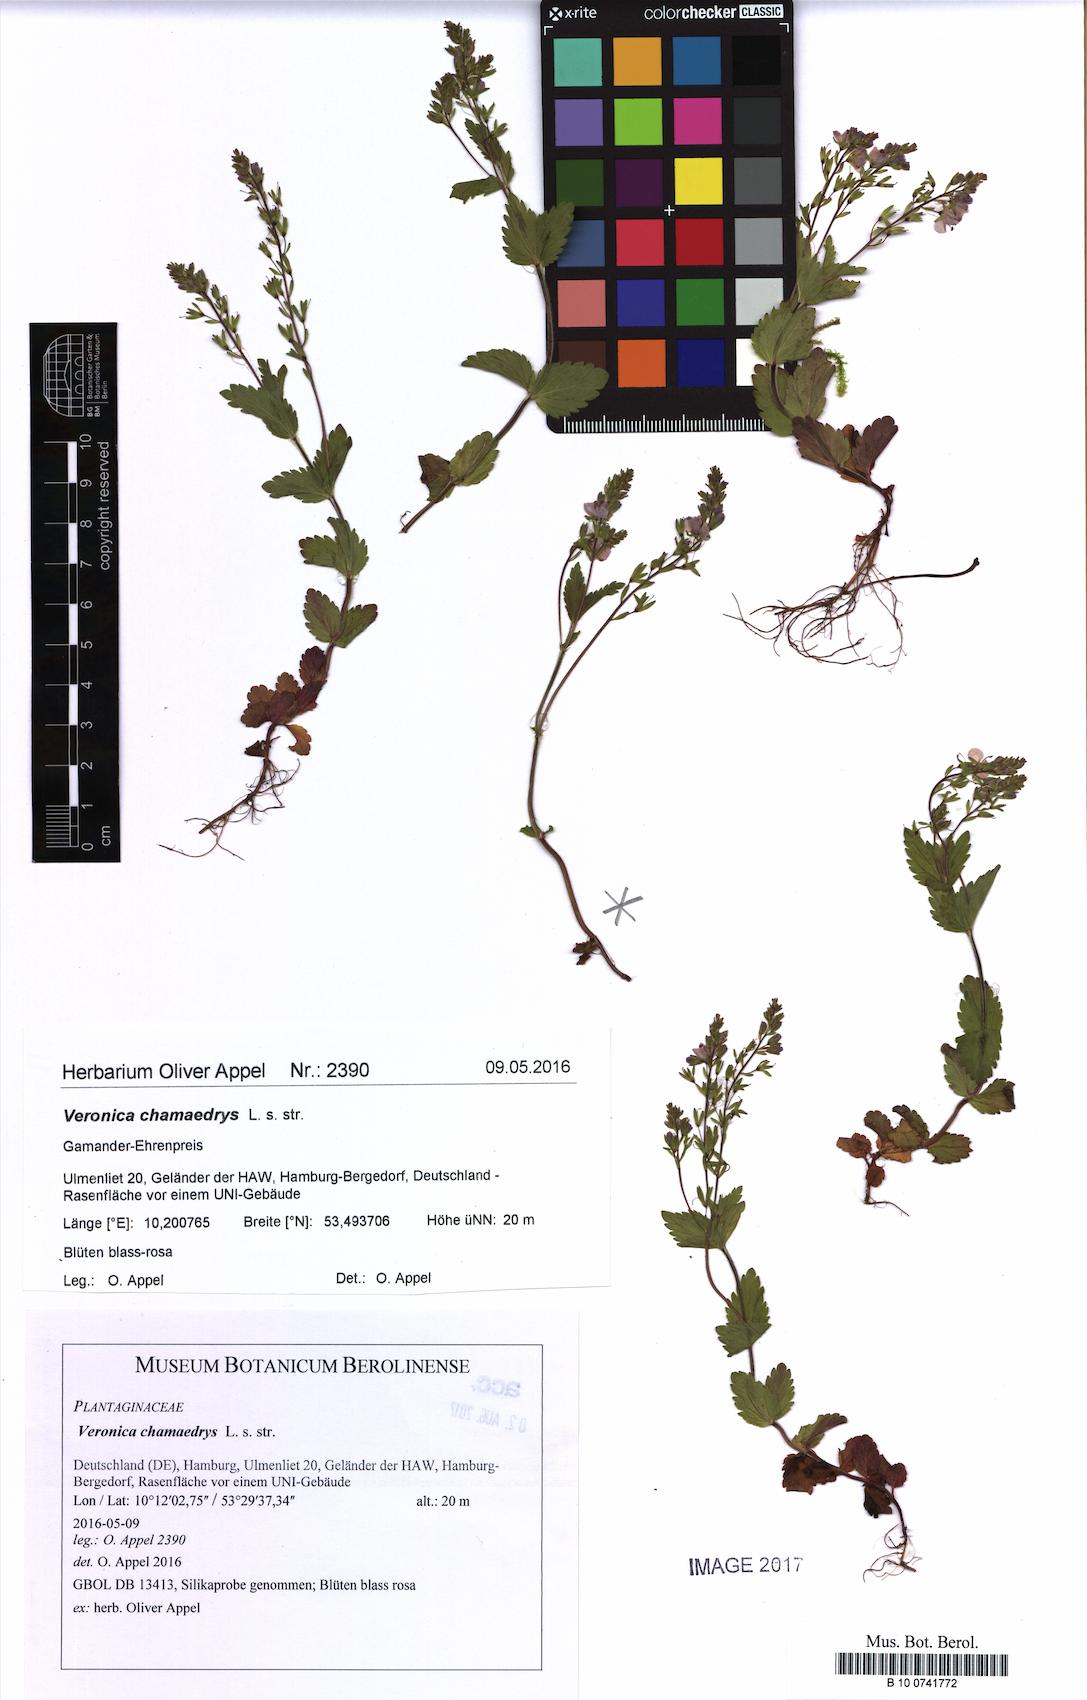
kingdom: Plantae
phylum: Tracheophyta
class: Magnoliopsida
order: Lamiales
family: Plantaginaceae
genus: Veronica
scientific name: Veronica chamaedrys
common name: Germander speedwell
